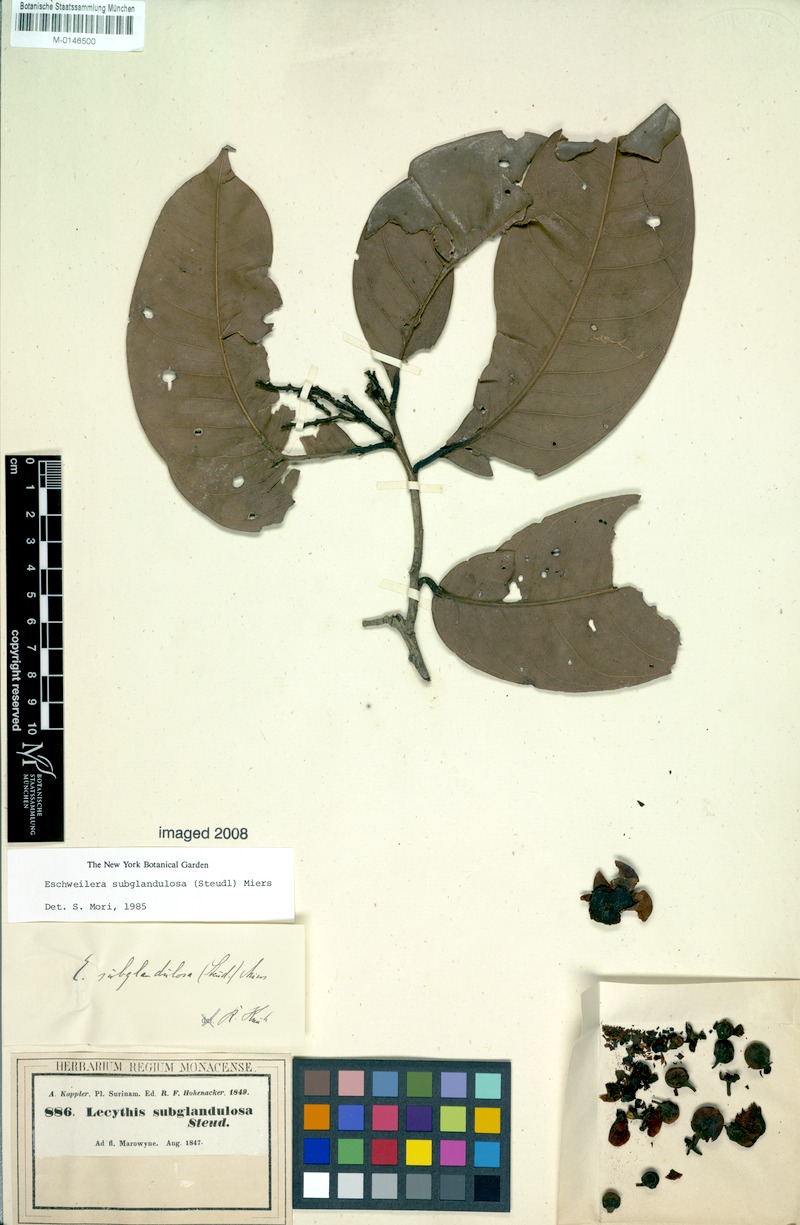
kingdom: Plantae
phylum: Tracheophyta
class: Magnoliopsida
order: Ericales
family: Lecythidaceae
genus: Eschweilera
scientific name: Eschweilera subglandulosa
